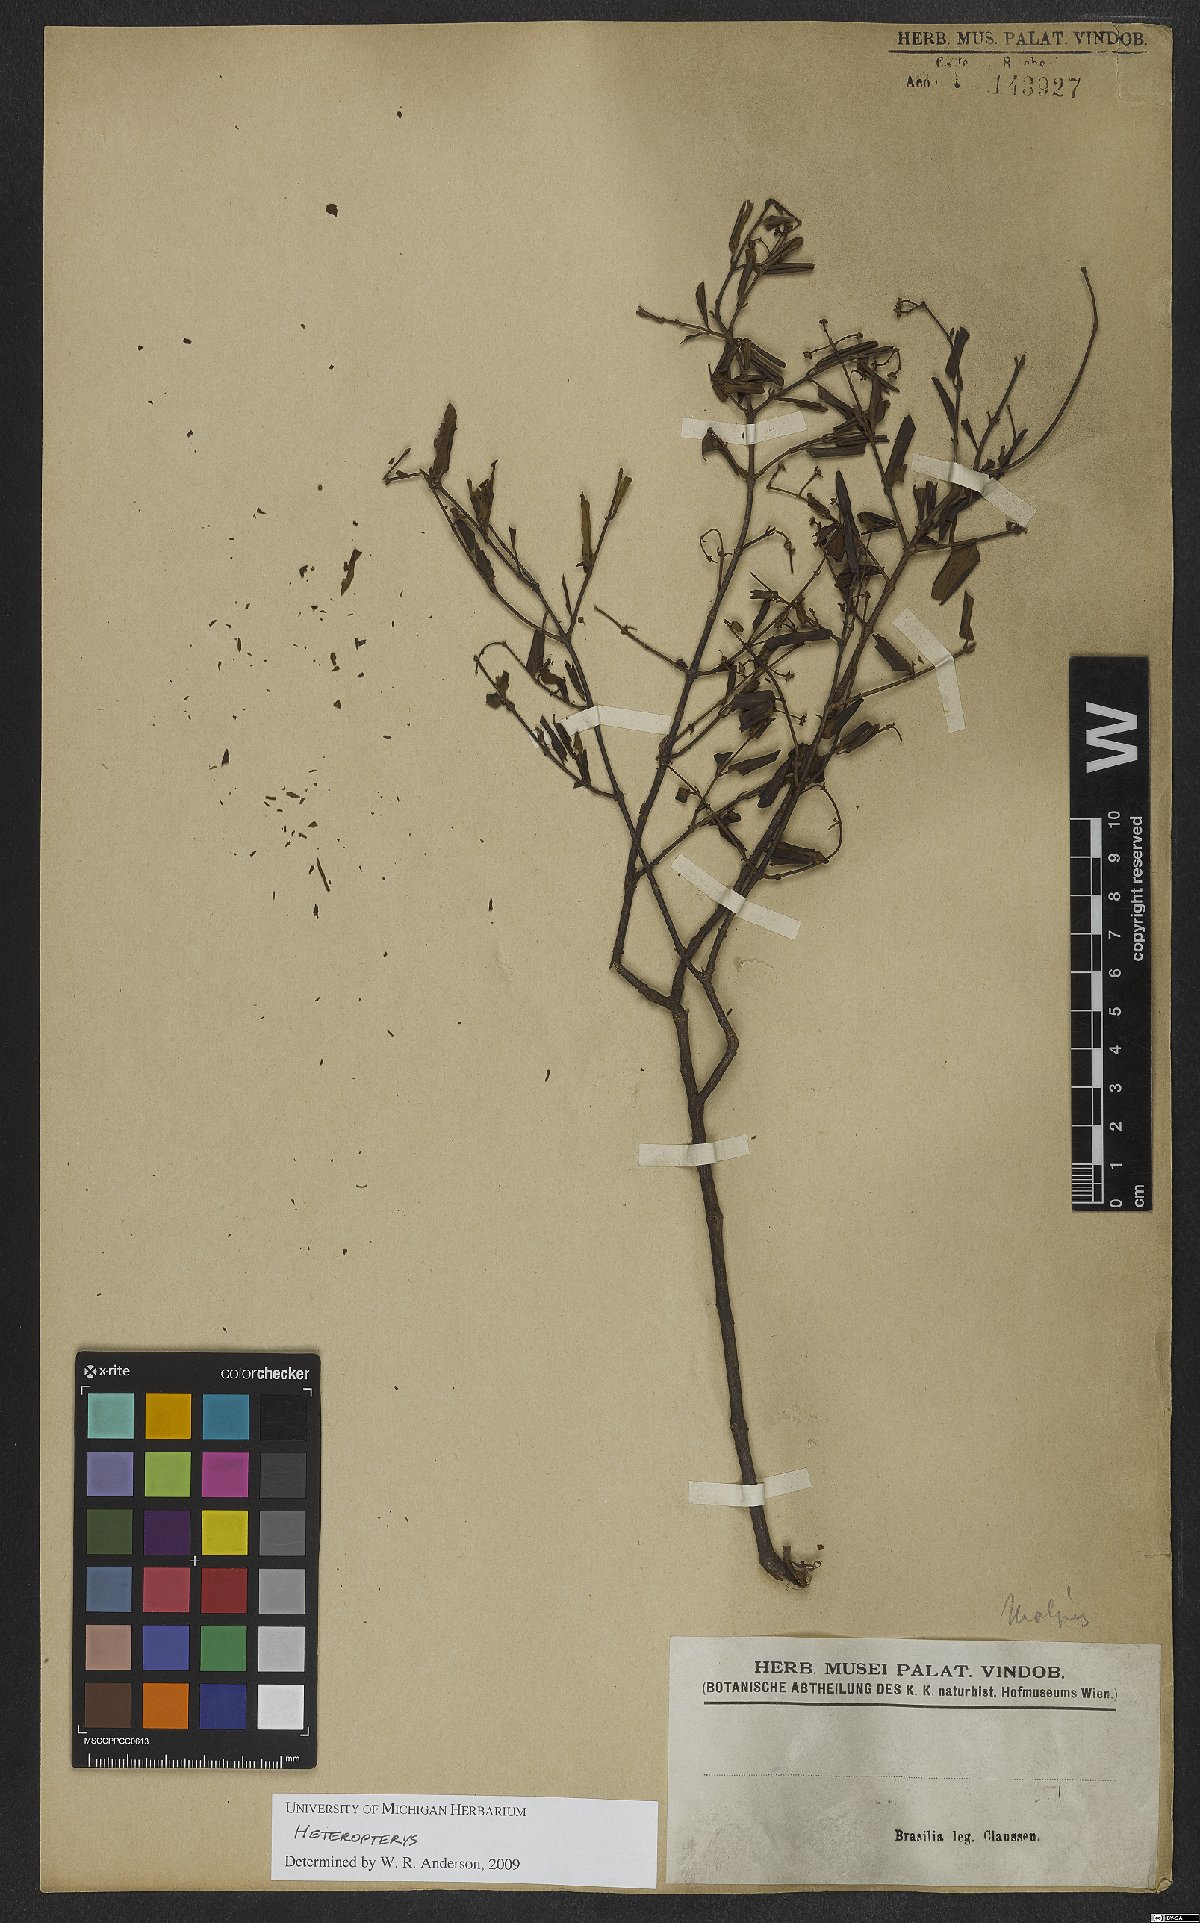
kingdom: Plantae
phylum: Tracheophyta
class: Magnoliopsida
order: Malpighiales
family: Malpighiaceae
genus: Heteropterys
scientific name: Heteropterys
